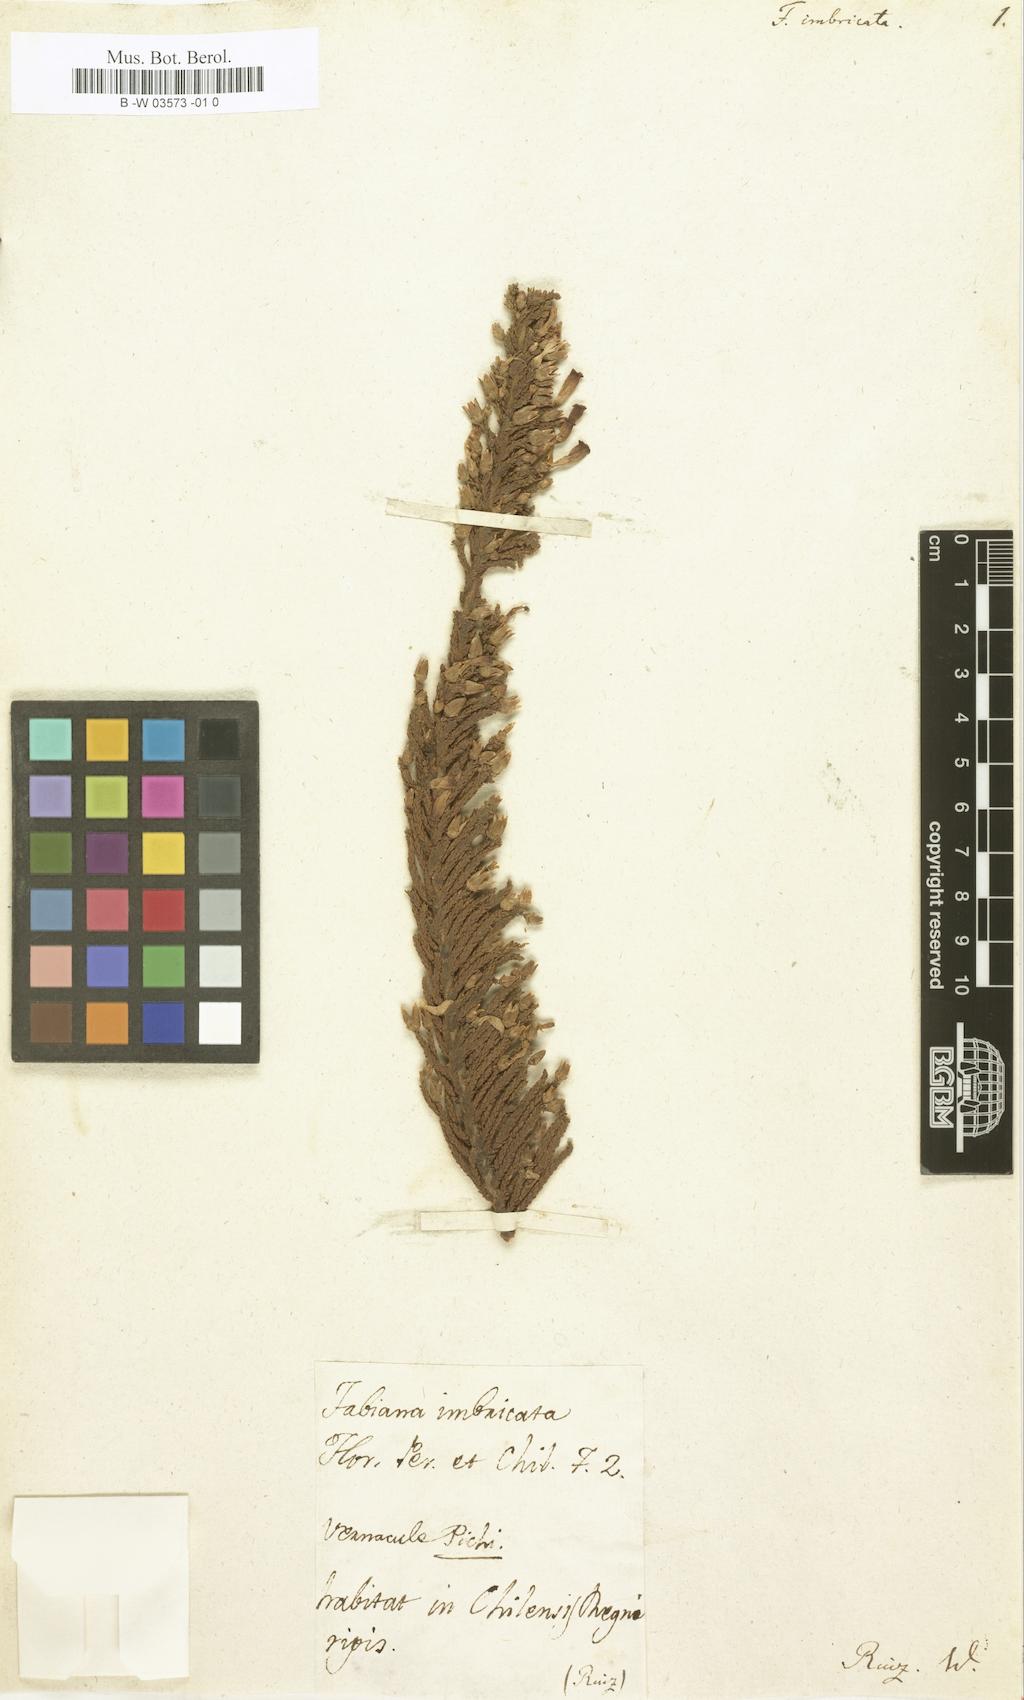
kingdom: Plantae
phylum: Tracheophyta
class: Magnoliopsida
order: Solanales
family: Solanaceae
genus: Fabiana
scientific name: Fabiana imbricata
